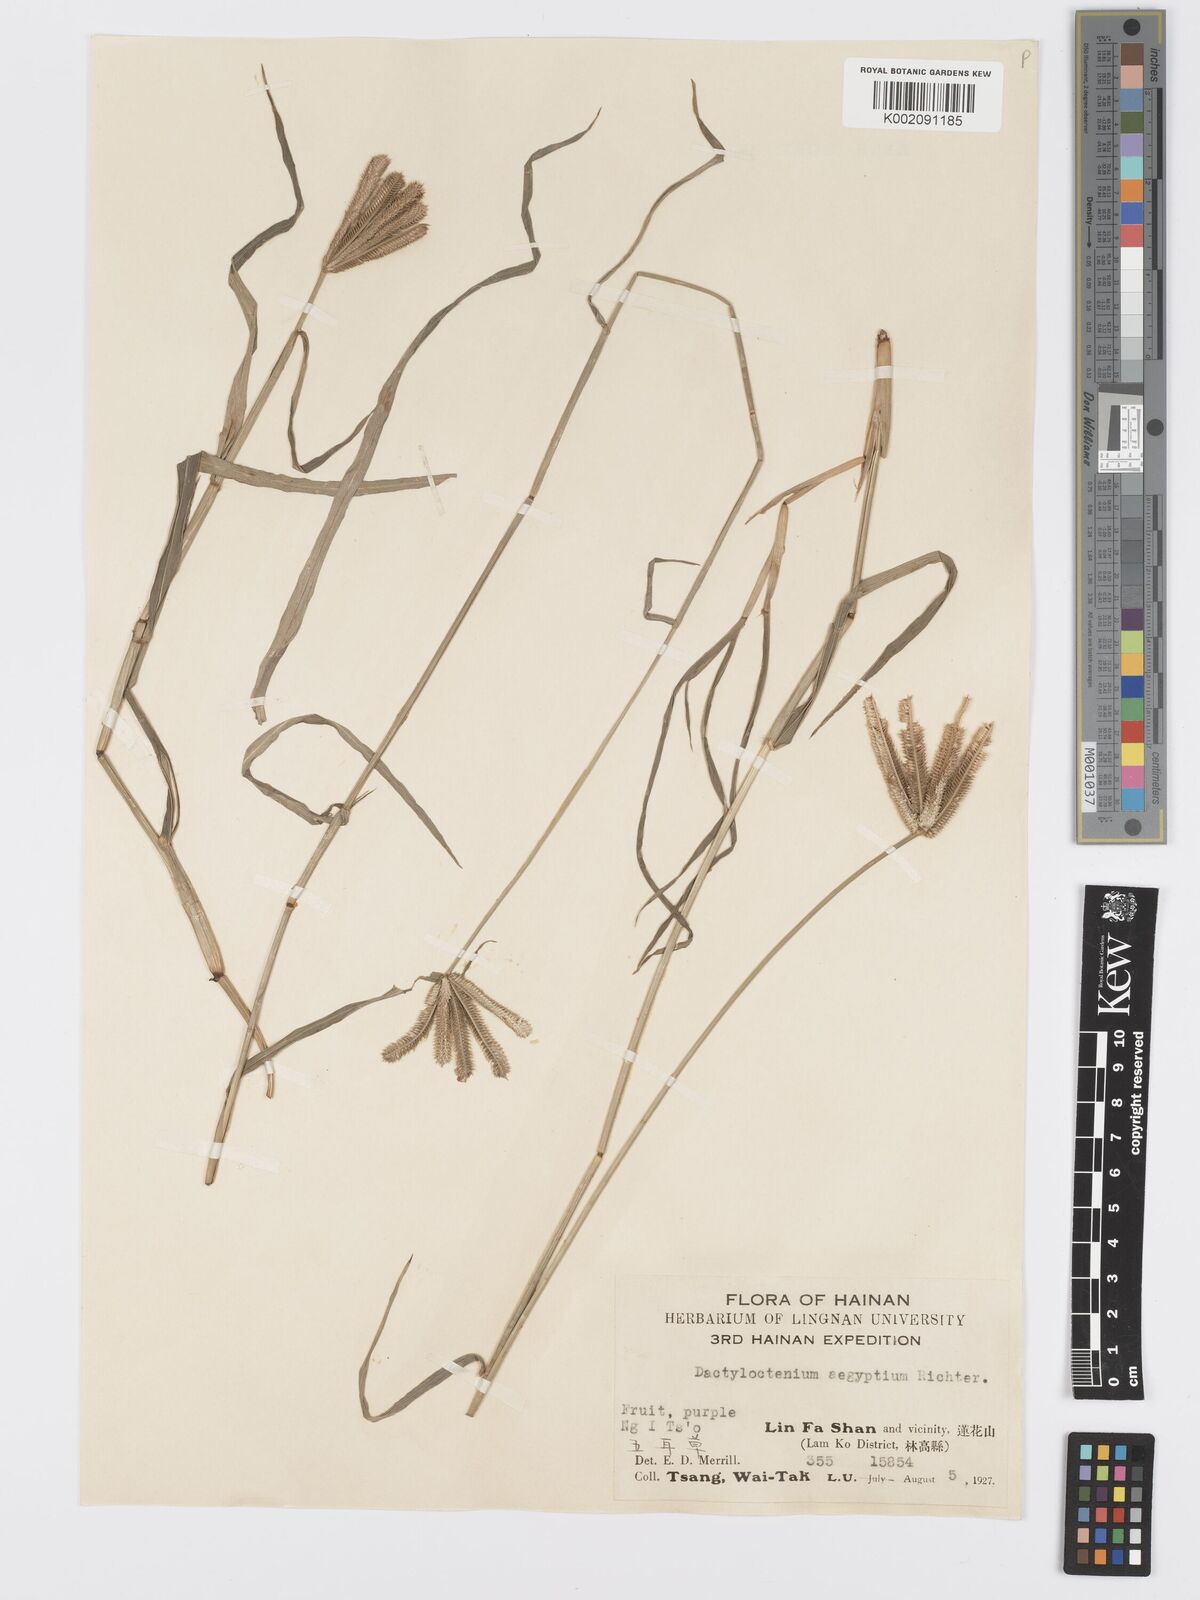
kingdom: Plantae
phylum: Tracheophyta
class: Liliopsida
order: Poales
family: Poaceae
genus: Dactyloctenium
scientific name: Dactyloctenium aegyptium
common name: Egyptian grass
